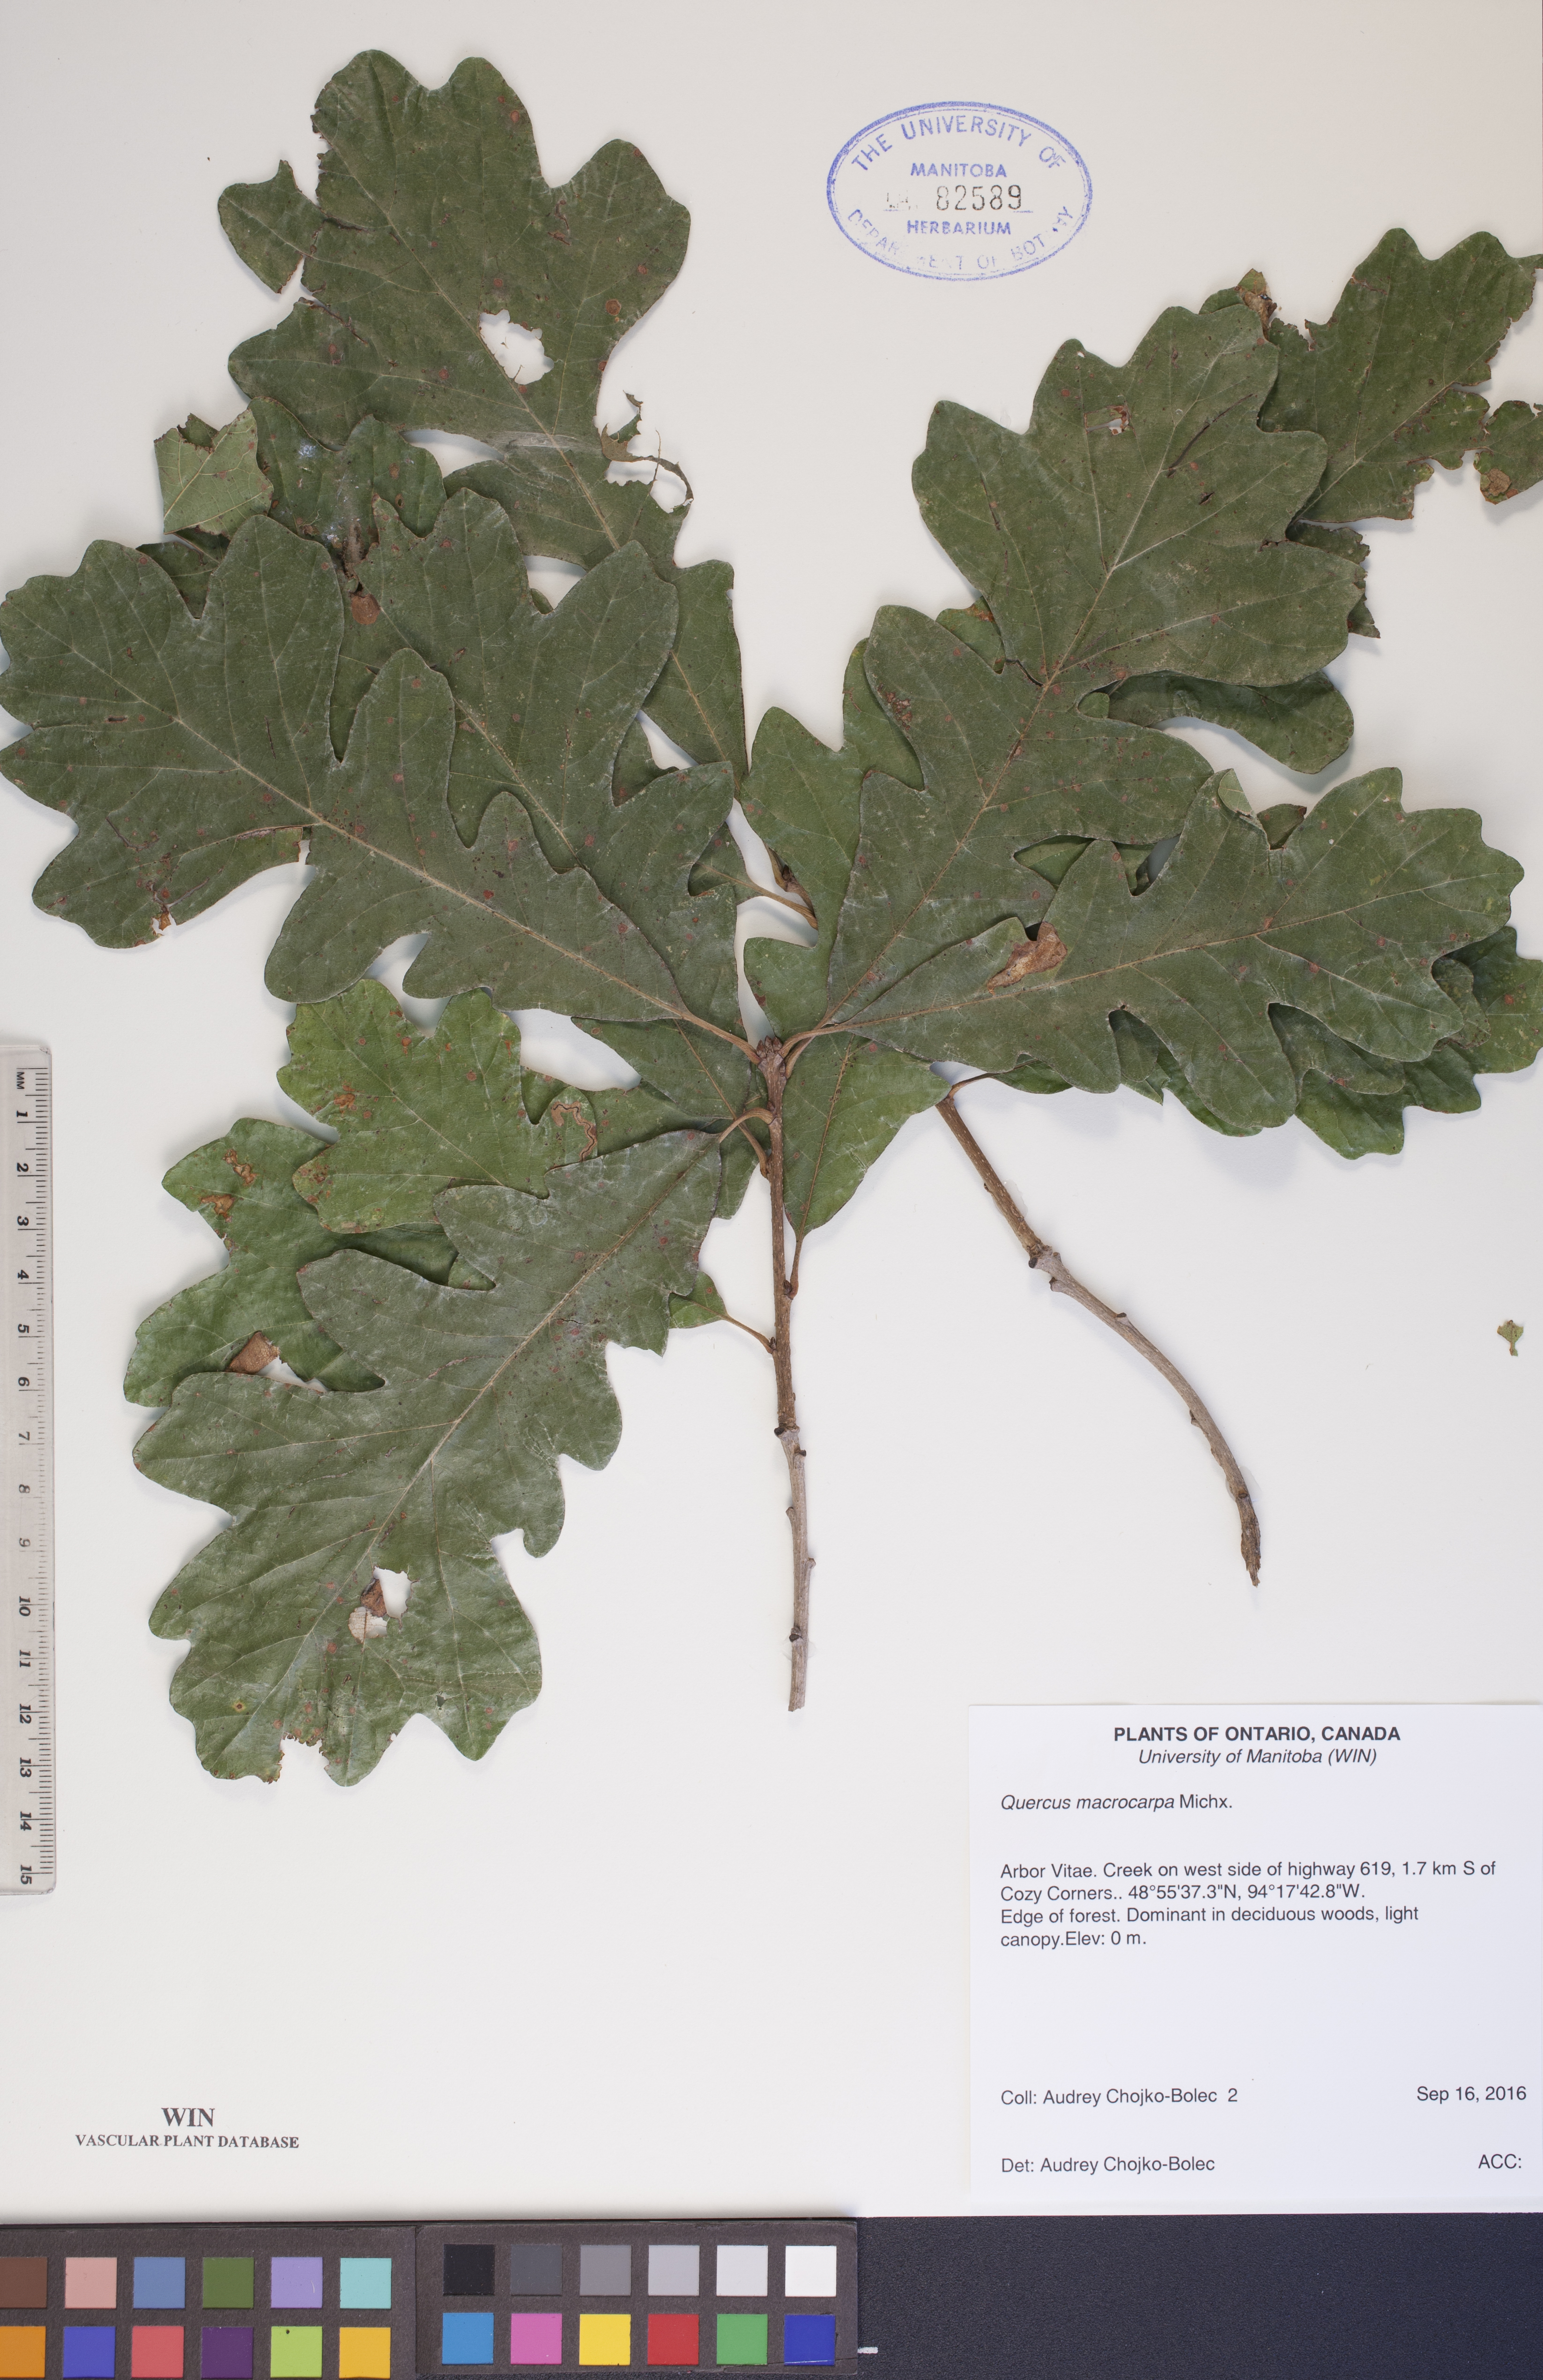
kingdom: Plantae
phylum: Tracheophyta
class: Magnoliopsida
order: Fagales
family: Fagaceae
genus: Quercus
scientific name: Quercus macrocarpa
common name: Bur oak
